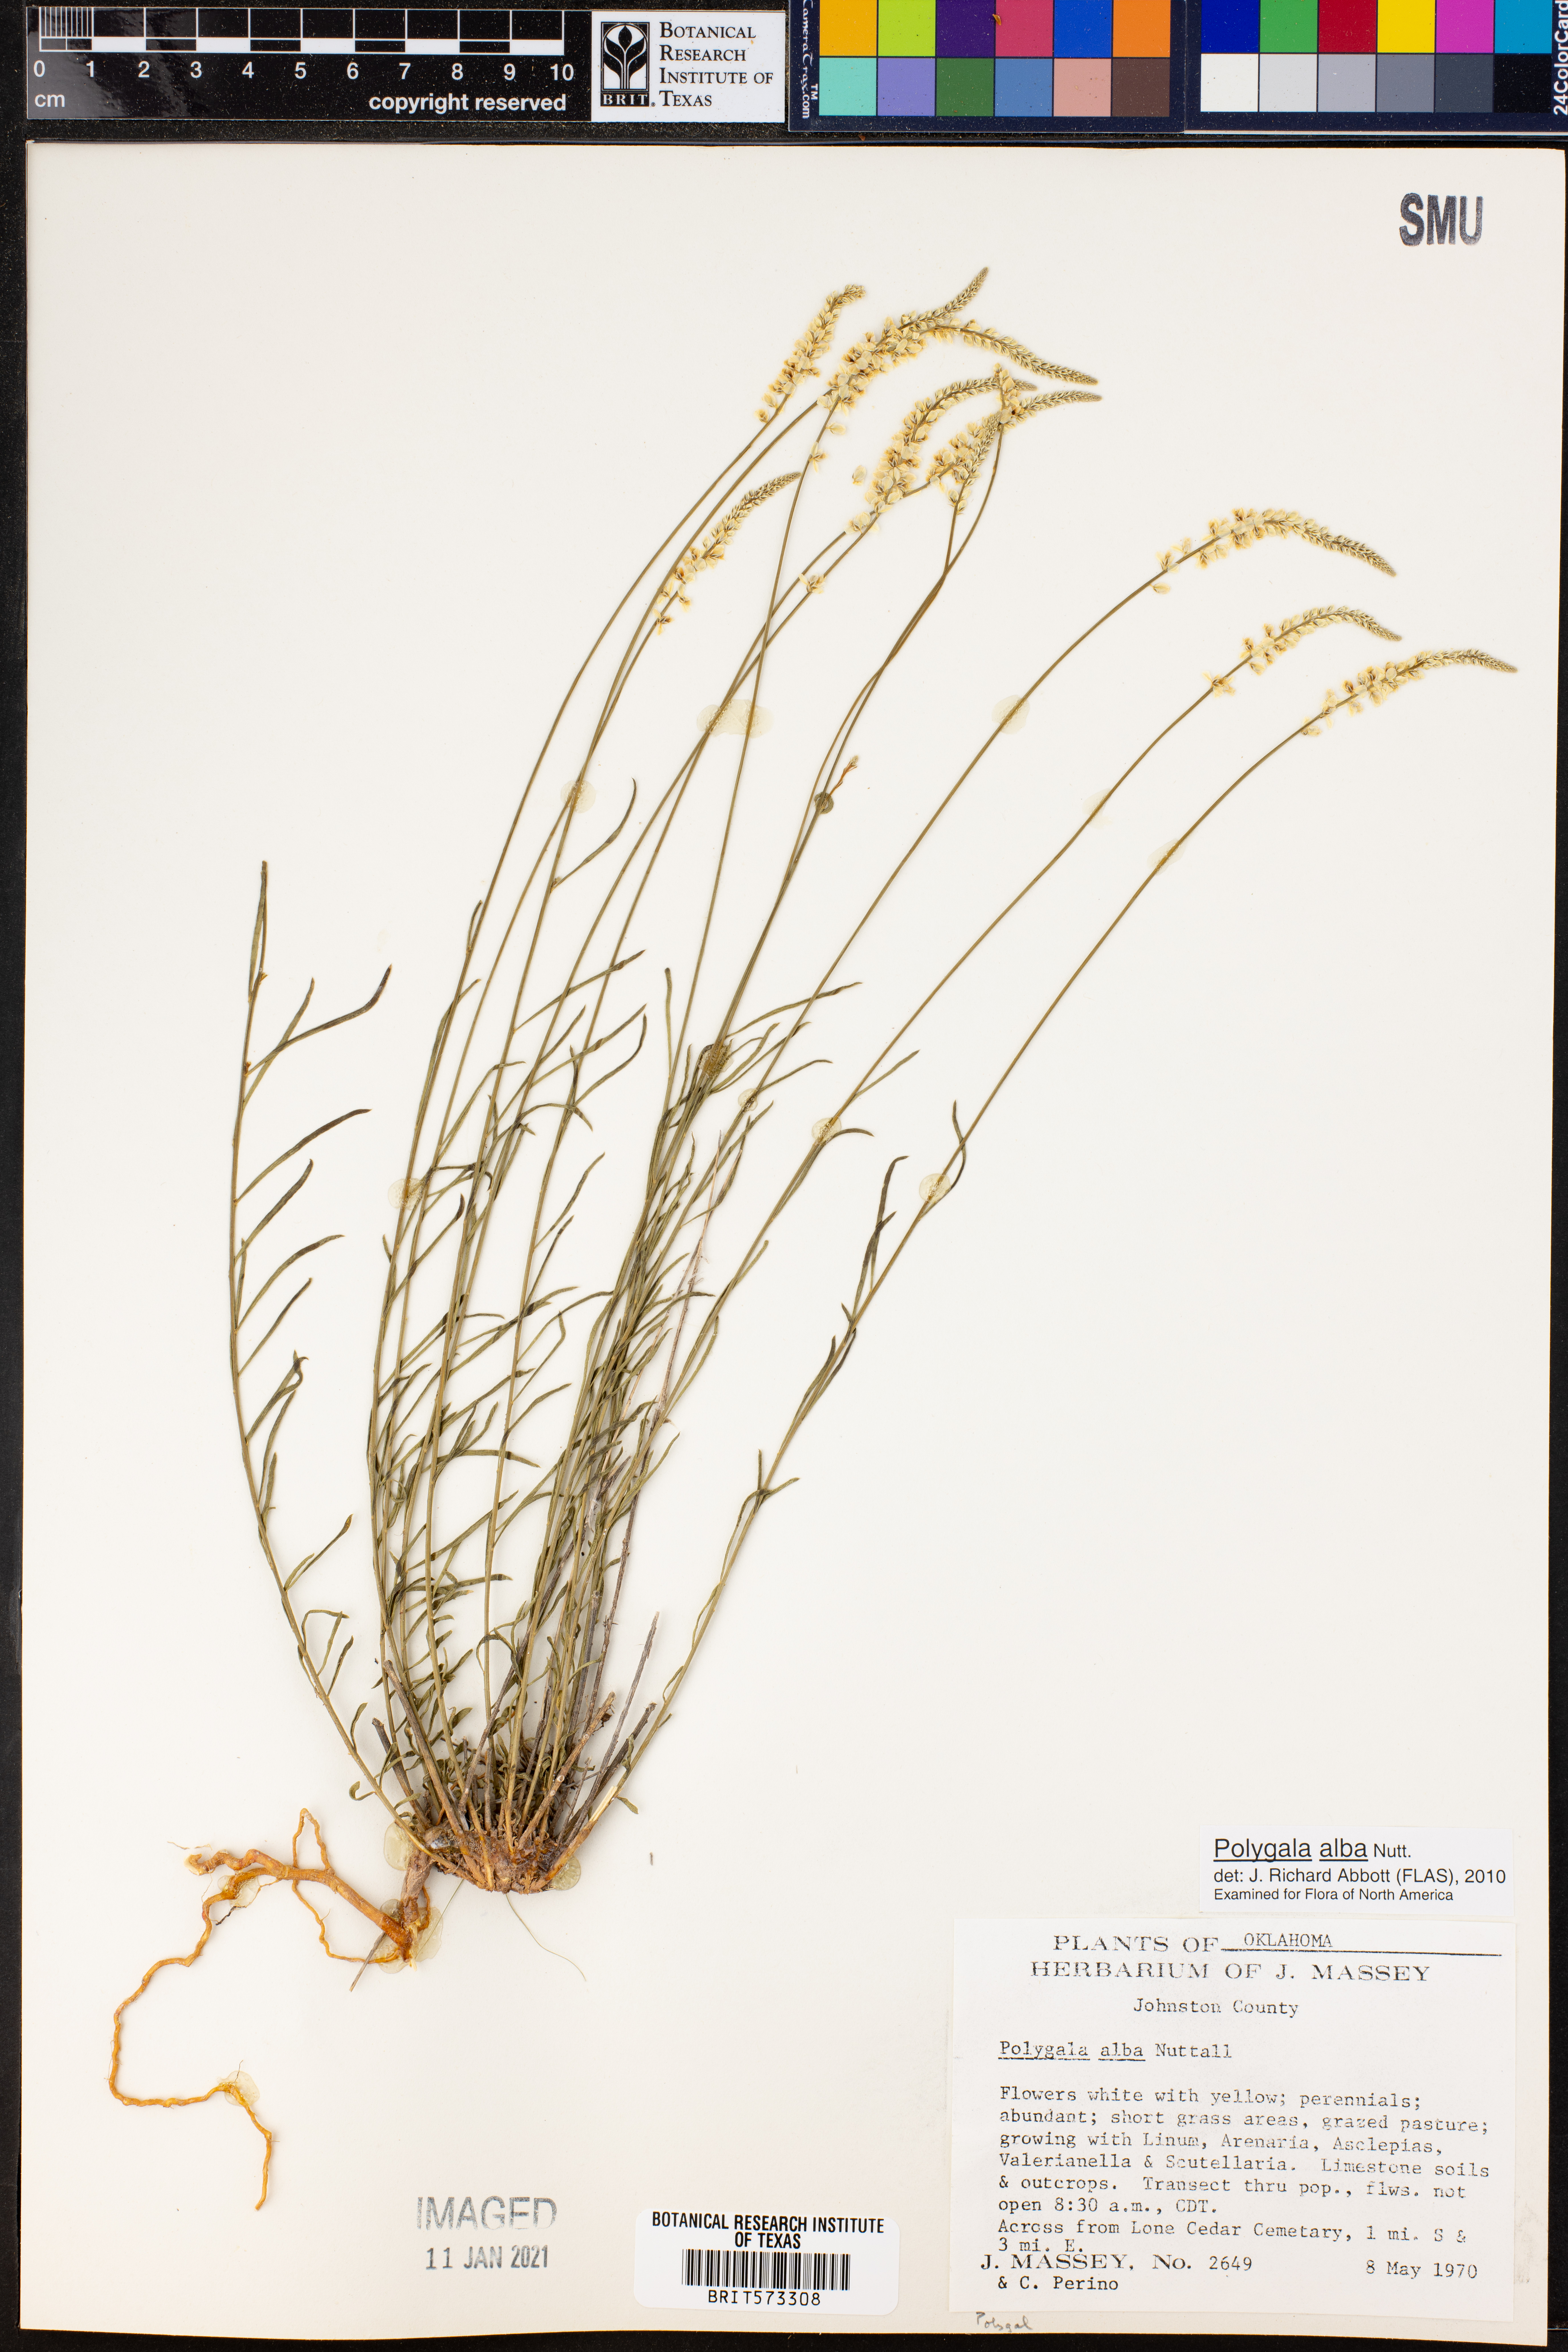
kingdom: Plantae
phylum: Tracheophyta
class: Magnoliopsida
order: Fabales
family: Polygalaceae
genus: Polygala
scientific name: Polygala alba
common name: White milkwort
